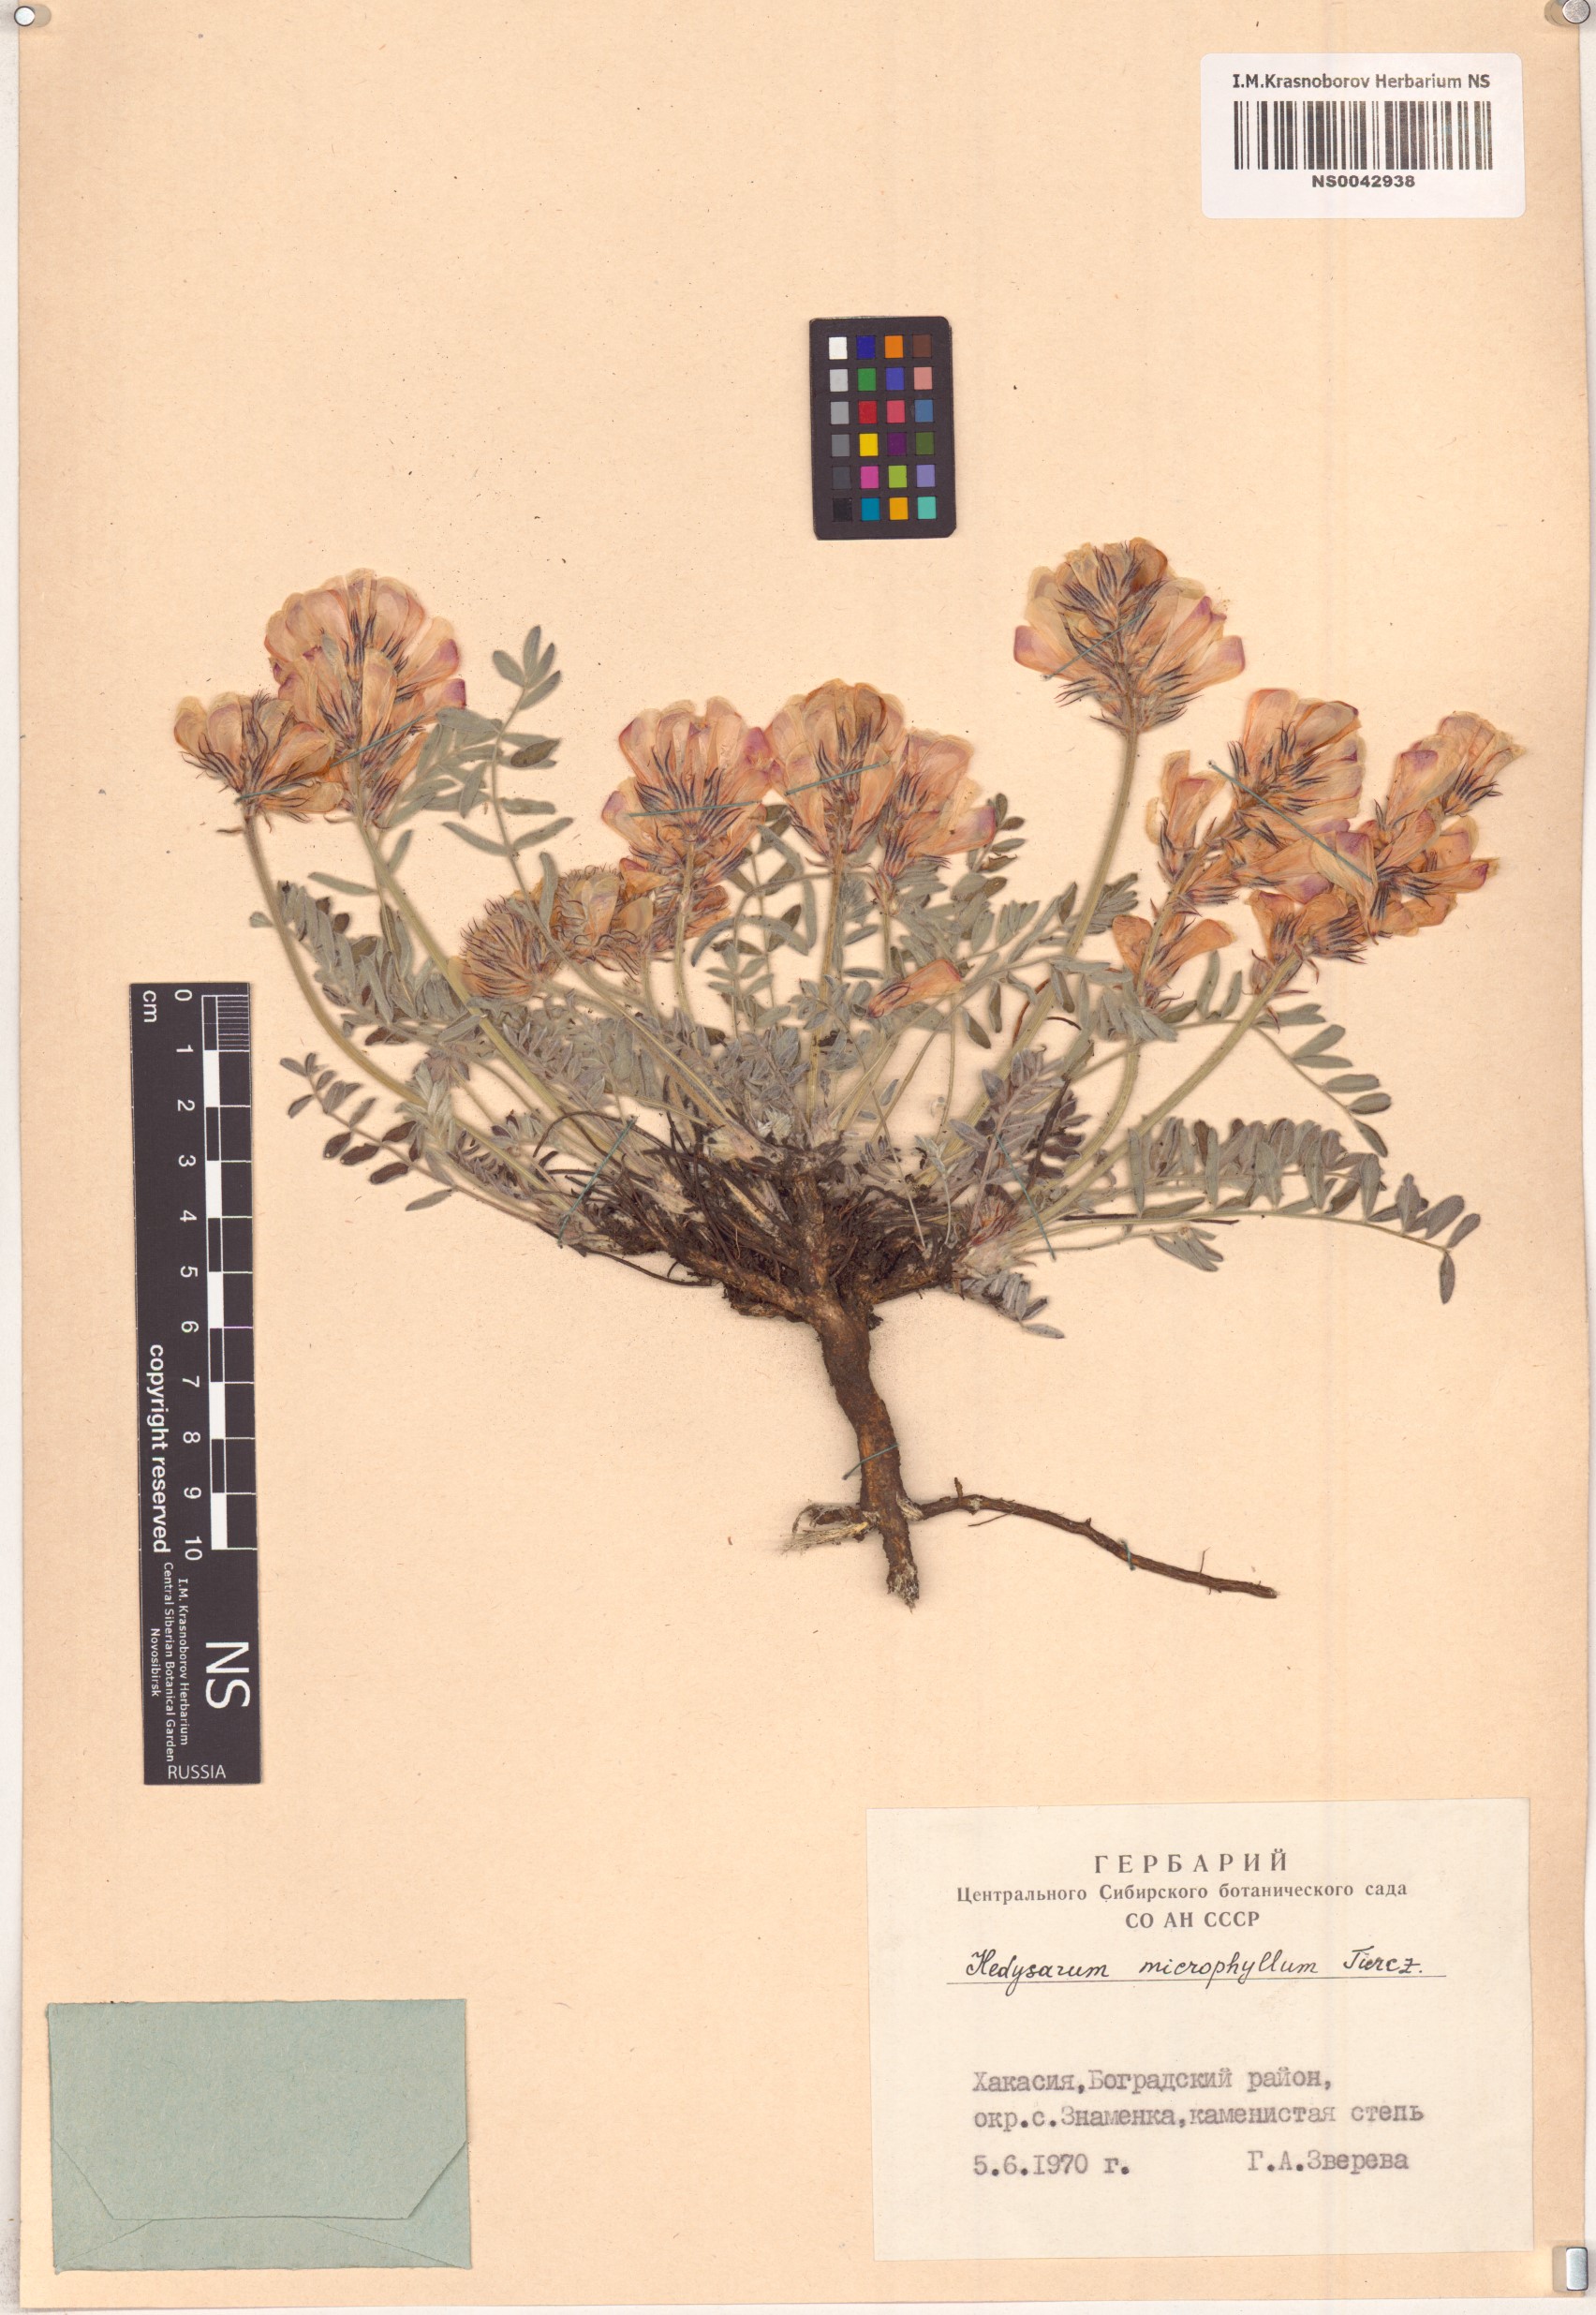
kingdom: Plantae
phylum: Tracheophyta
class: Magnoliopsida
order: Fabales
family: Fabaceae
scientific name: Fabaceae
